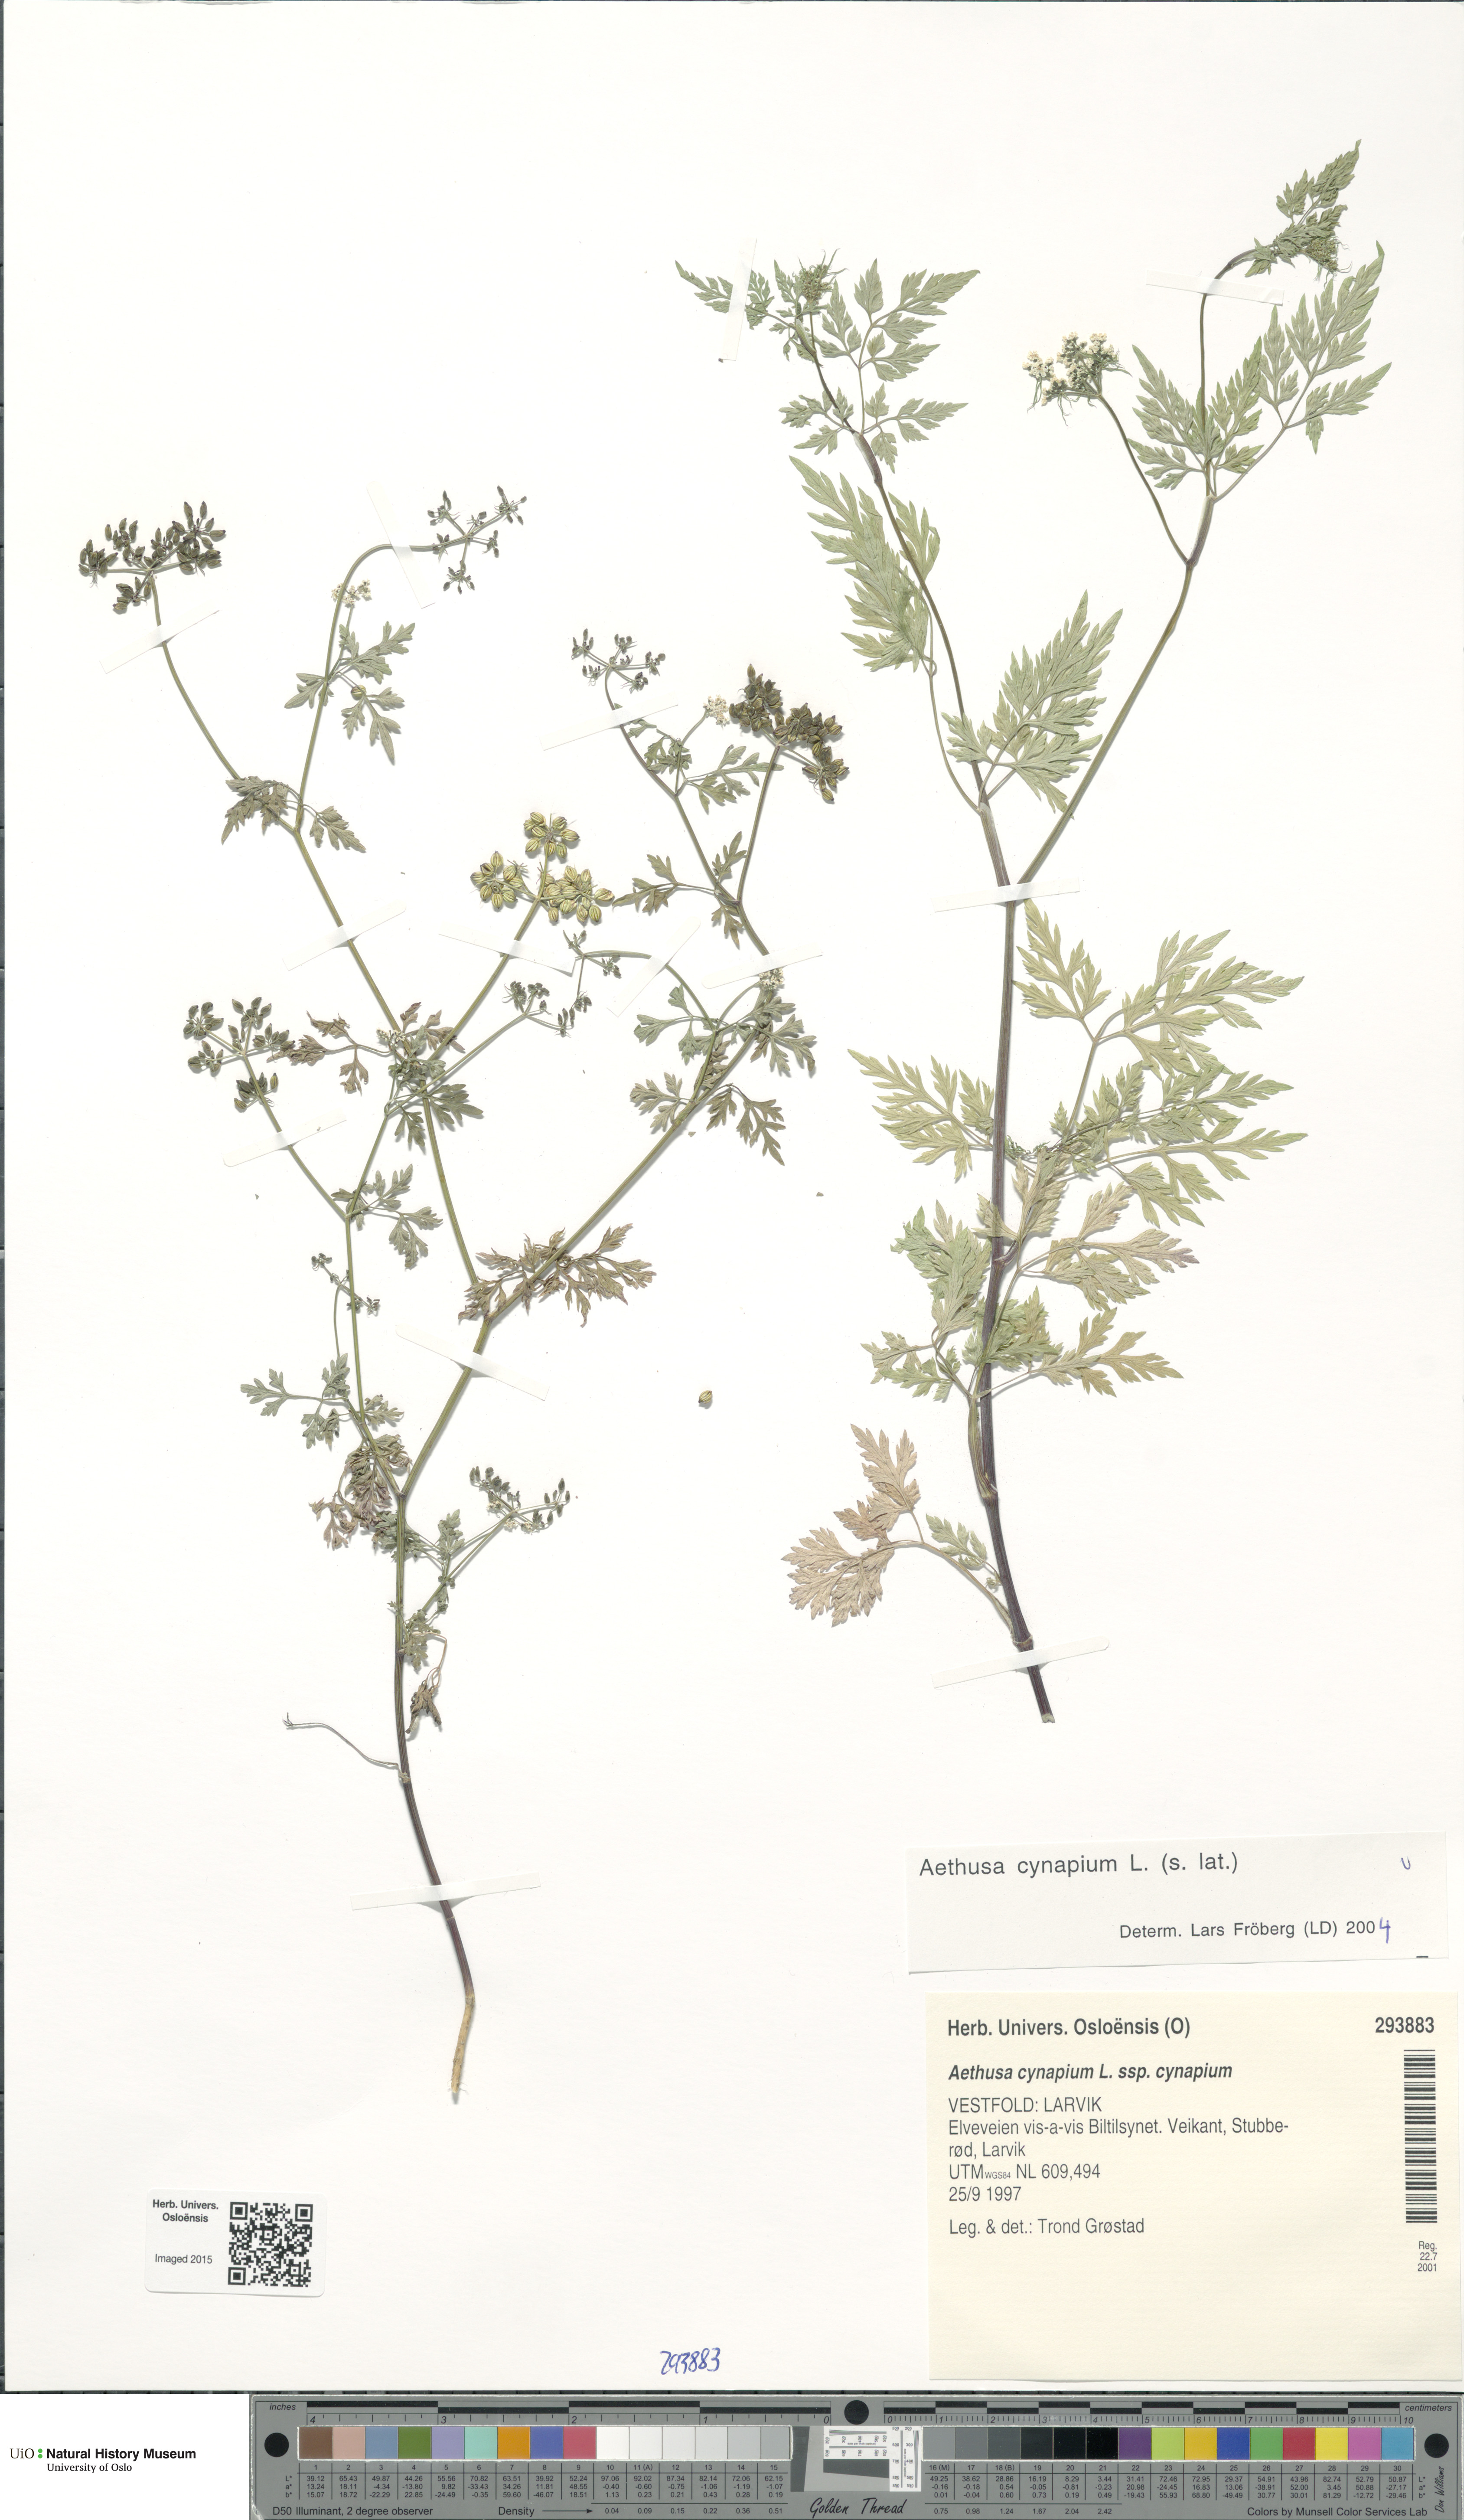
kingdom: Plantae
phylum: Tracheophyta
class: Magnoliopsida
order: Apiales
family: Apiaceae
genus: Aethusa
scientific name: Aethusa cynapium
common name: Fool's parsley
